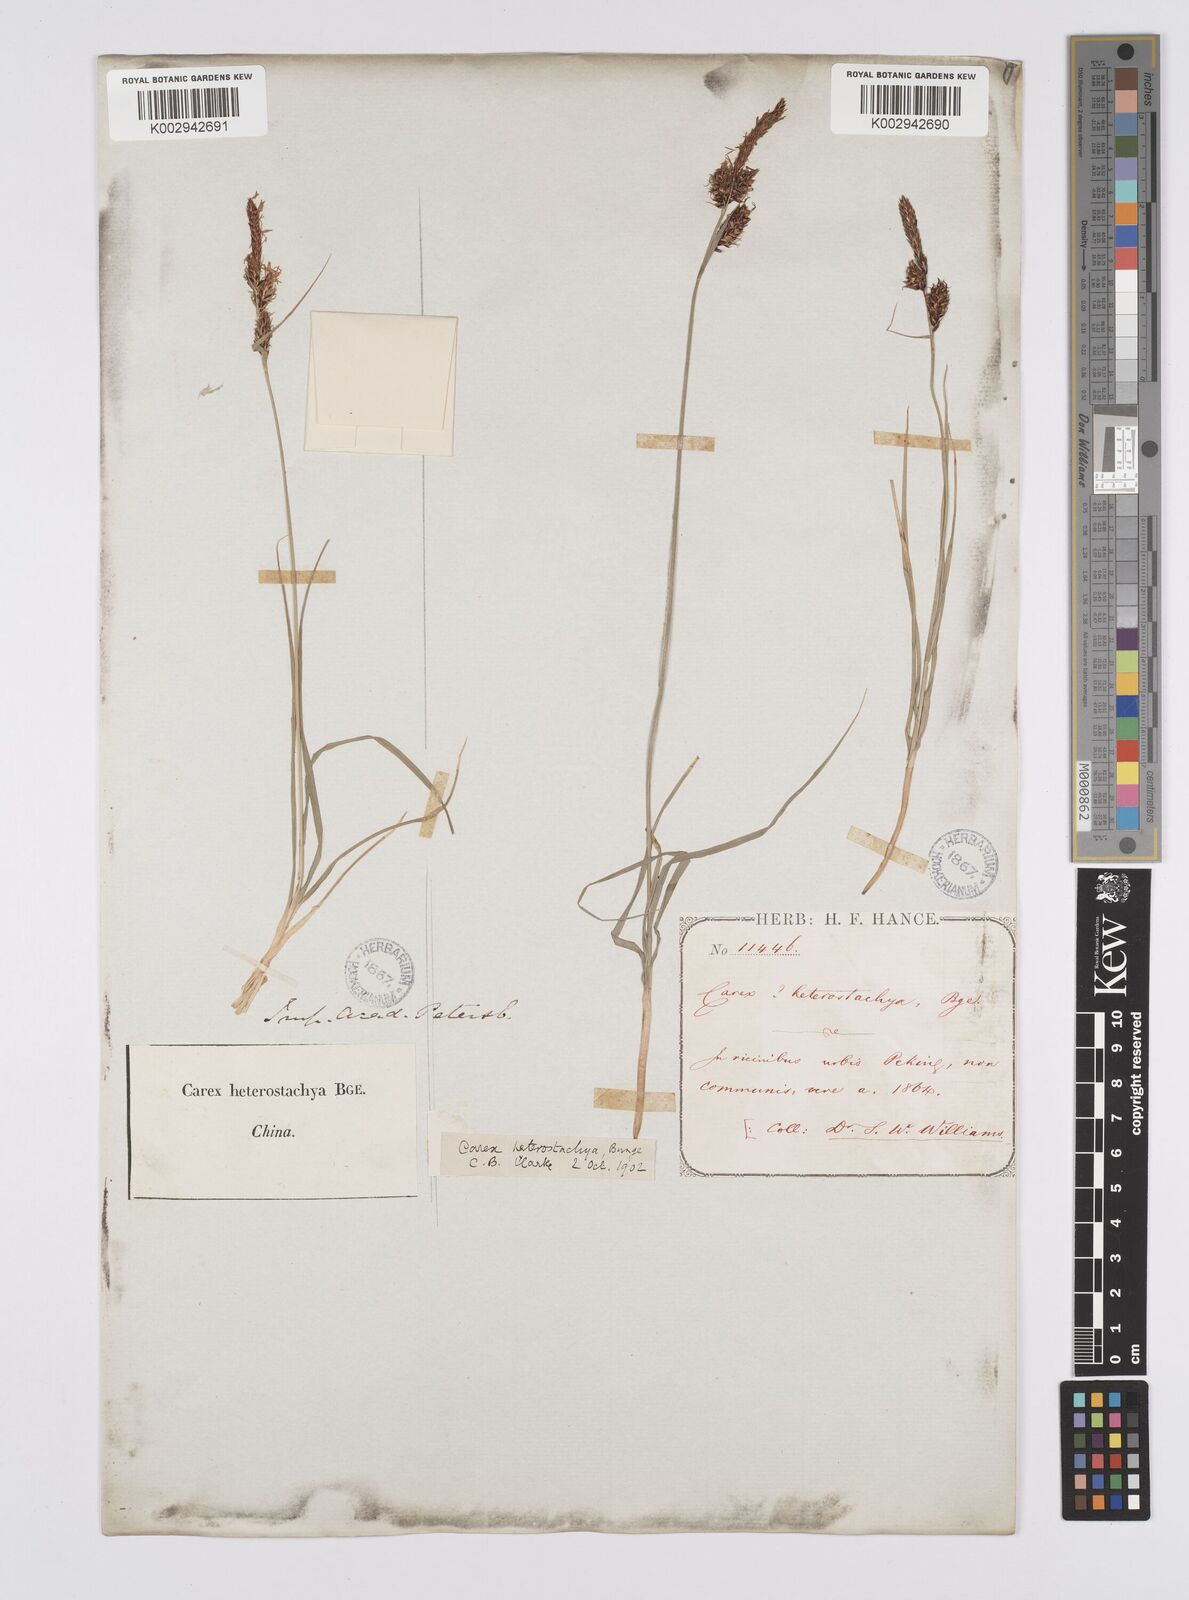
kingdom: Plantae
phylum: Tracheophyta
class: Liliopsida
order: Poales
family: Cyperaceae
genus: Carex
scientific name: Carex heterostachya
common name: Different-spike sedge
